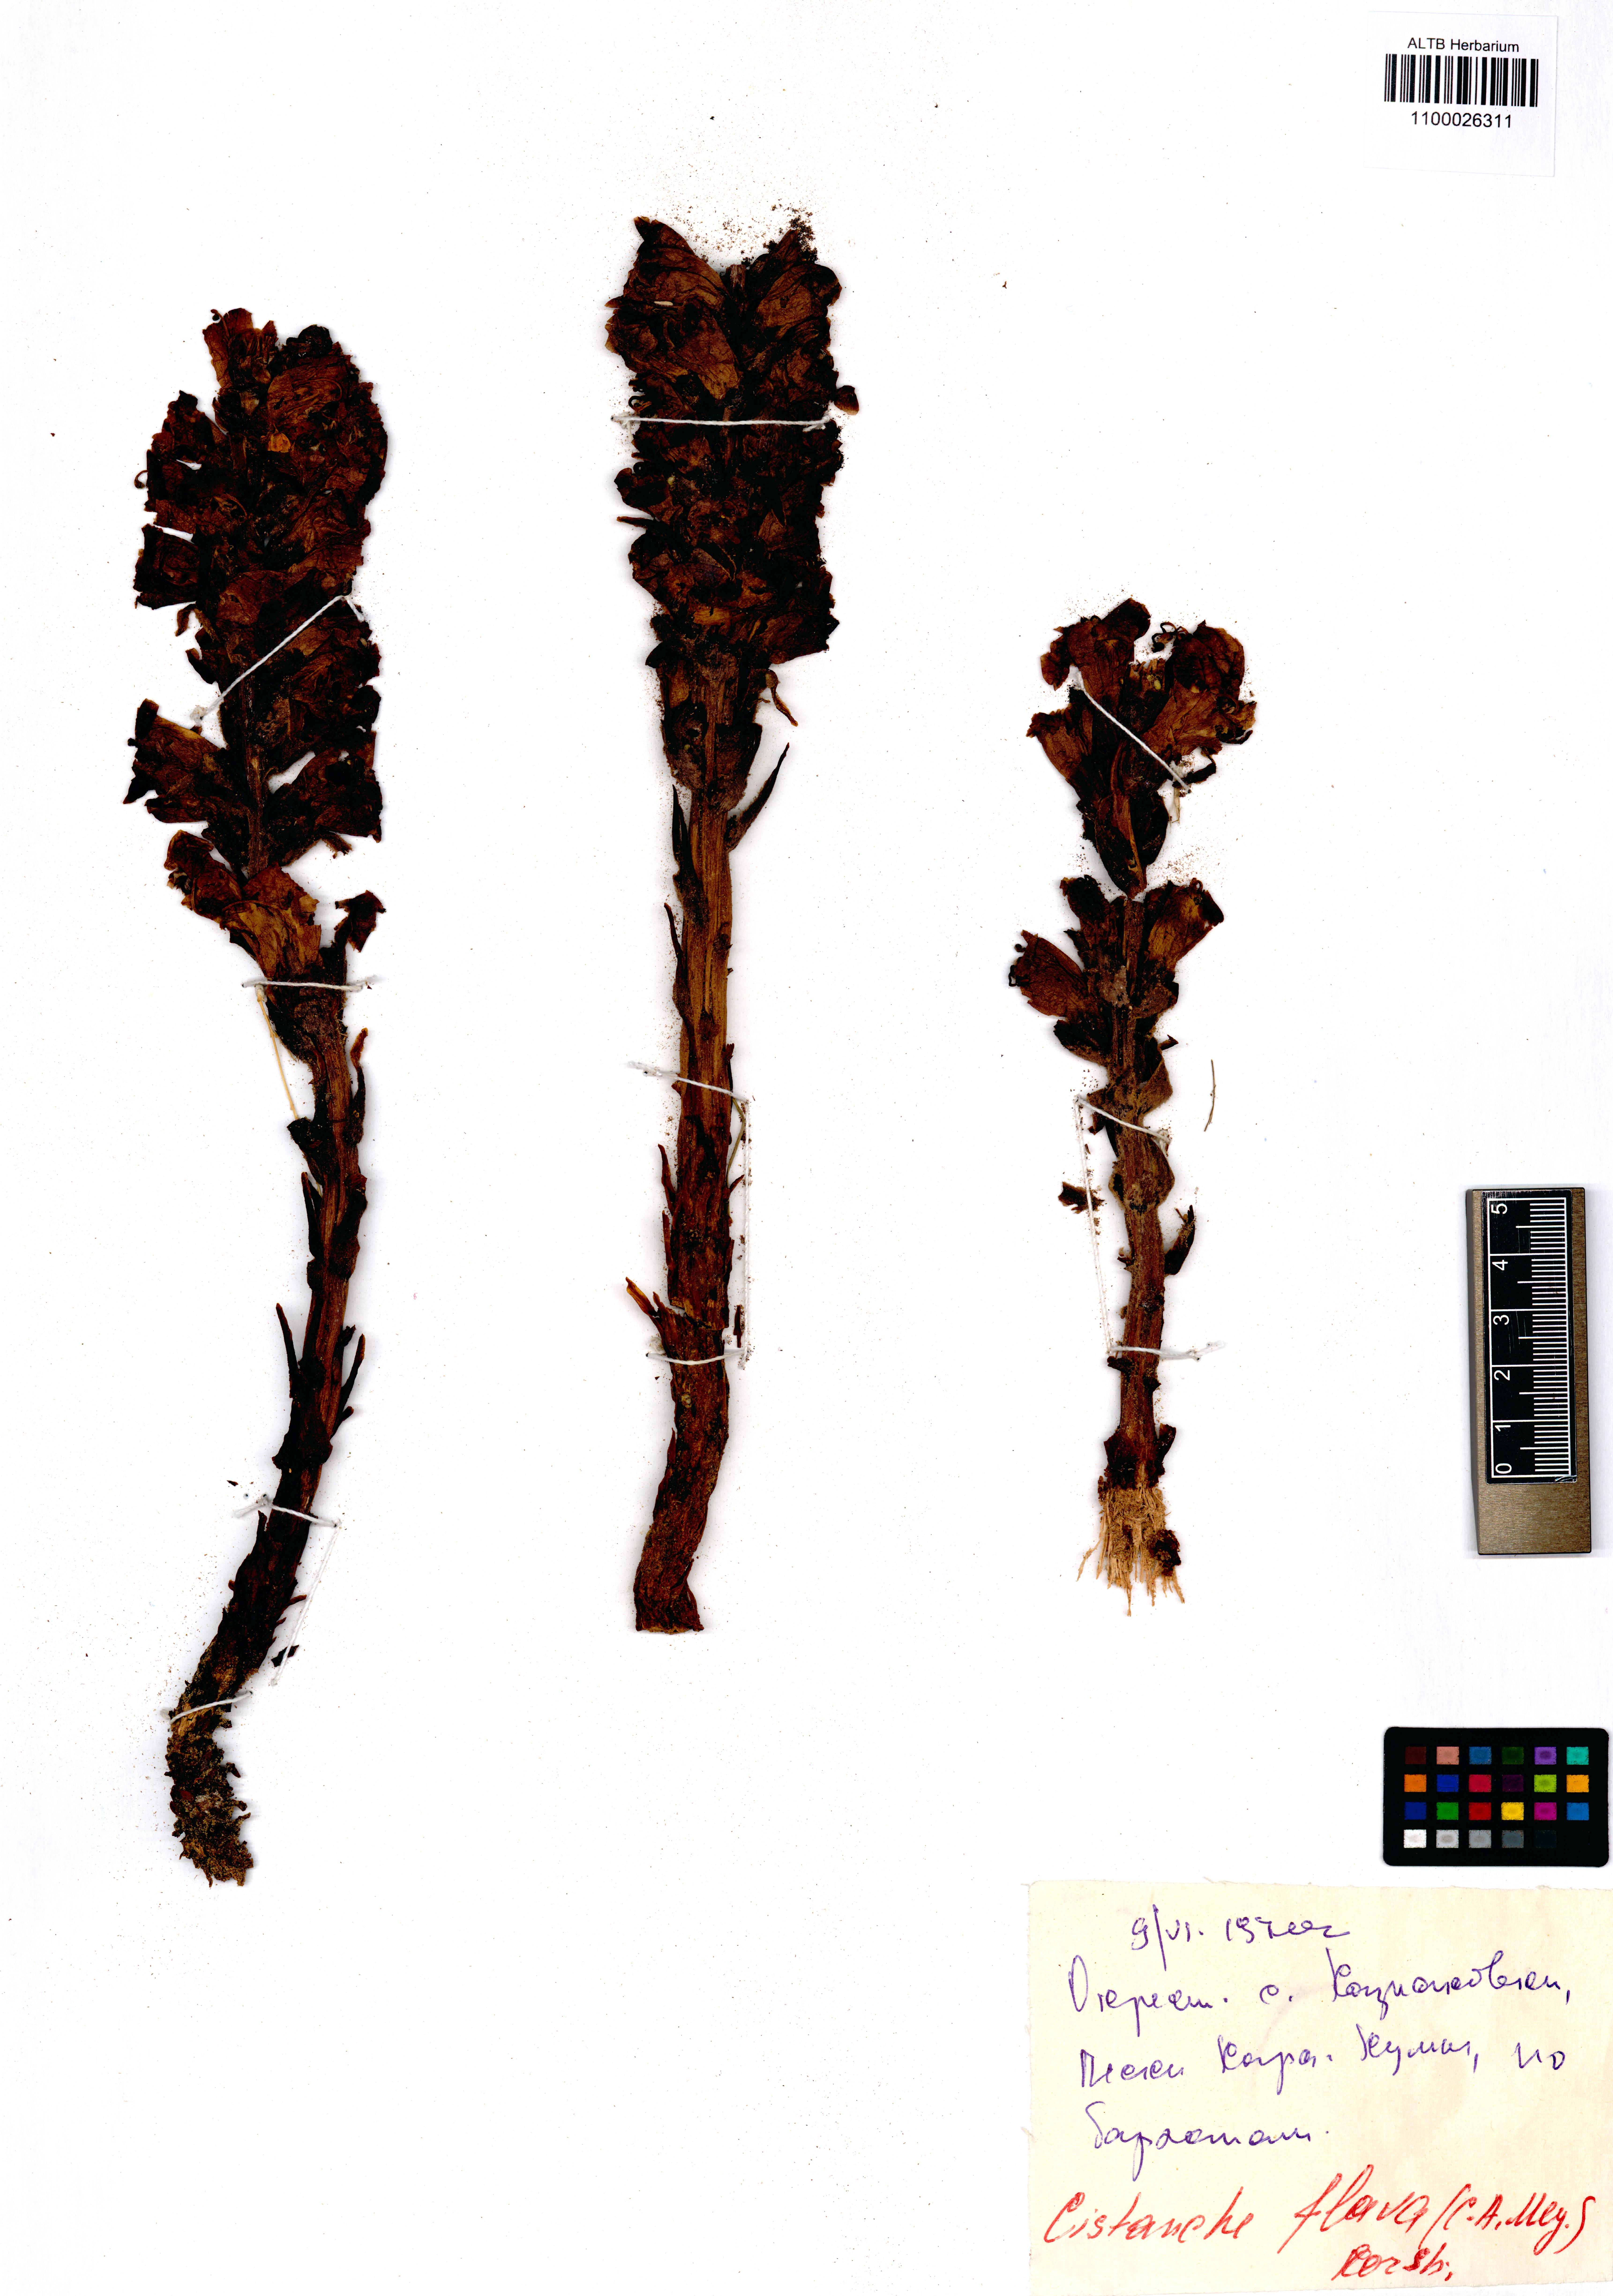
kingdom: Plantae
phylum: Tracheophyta
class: Magnoliopsida
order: Lamiales
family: Orobanchaceae
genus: Cistanche
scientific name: Cistanche flava
